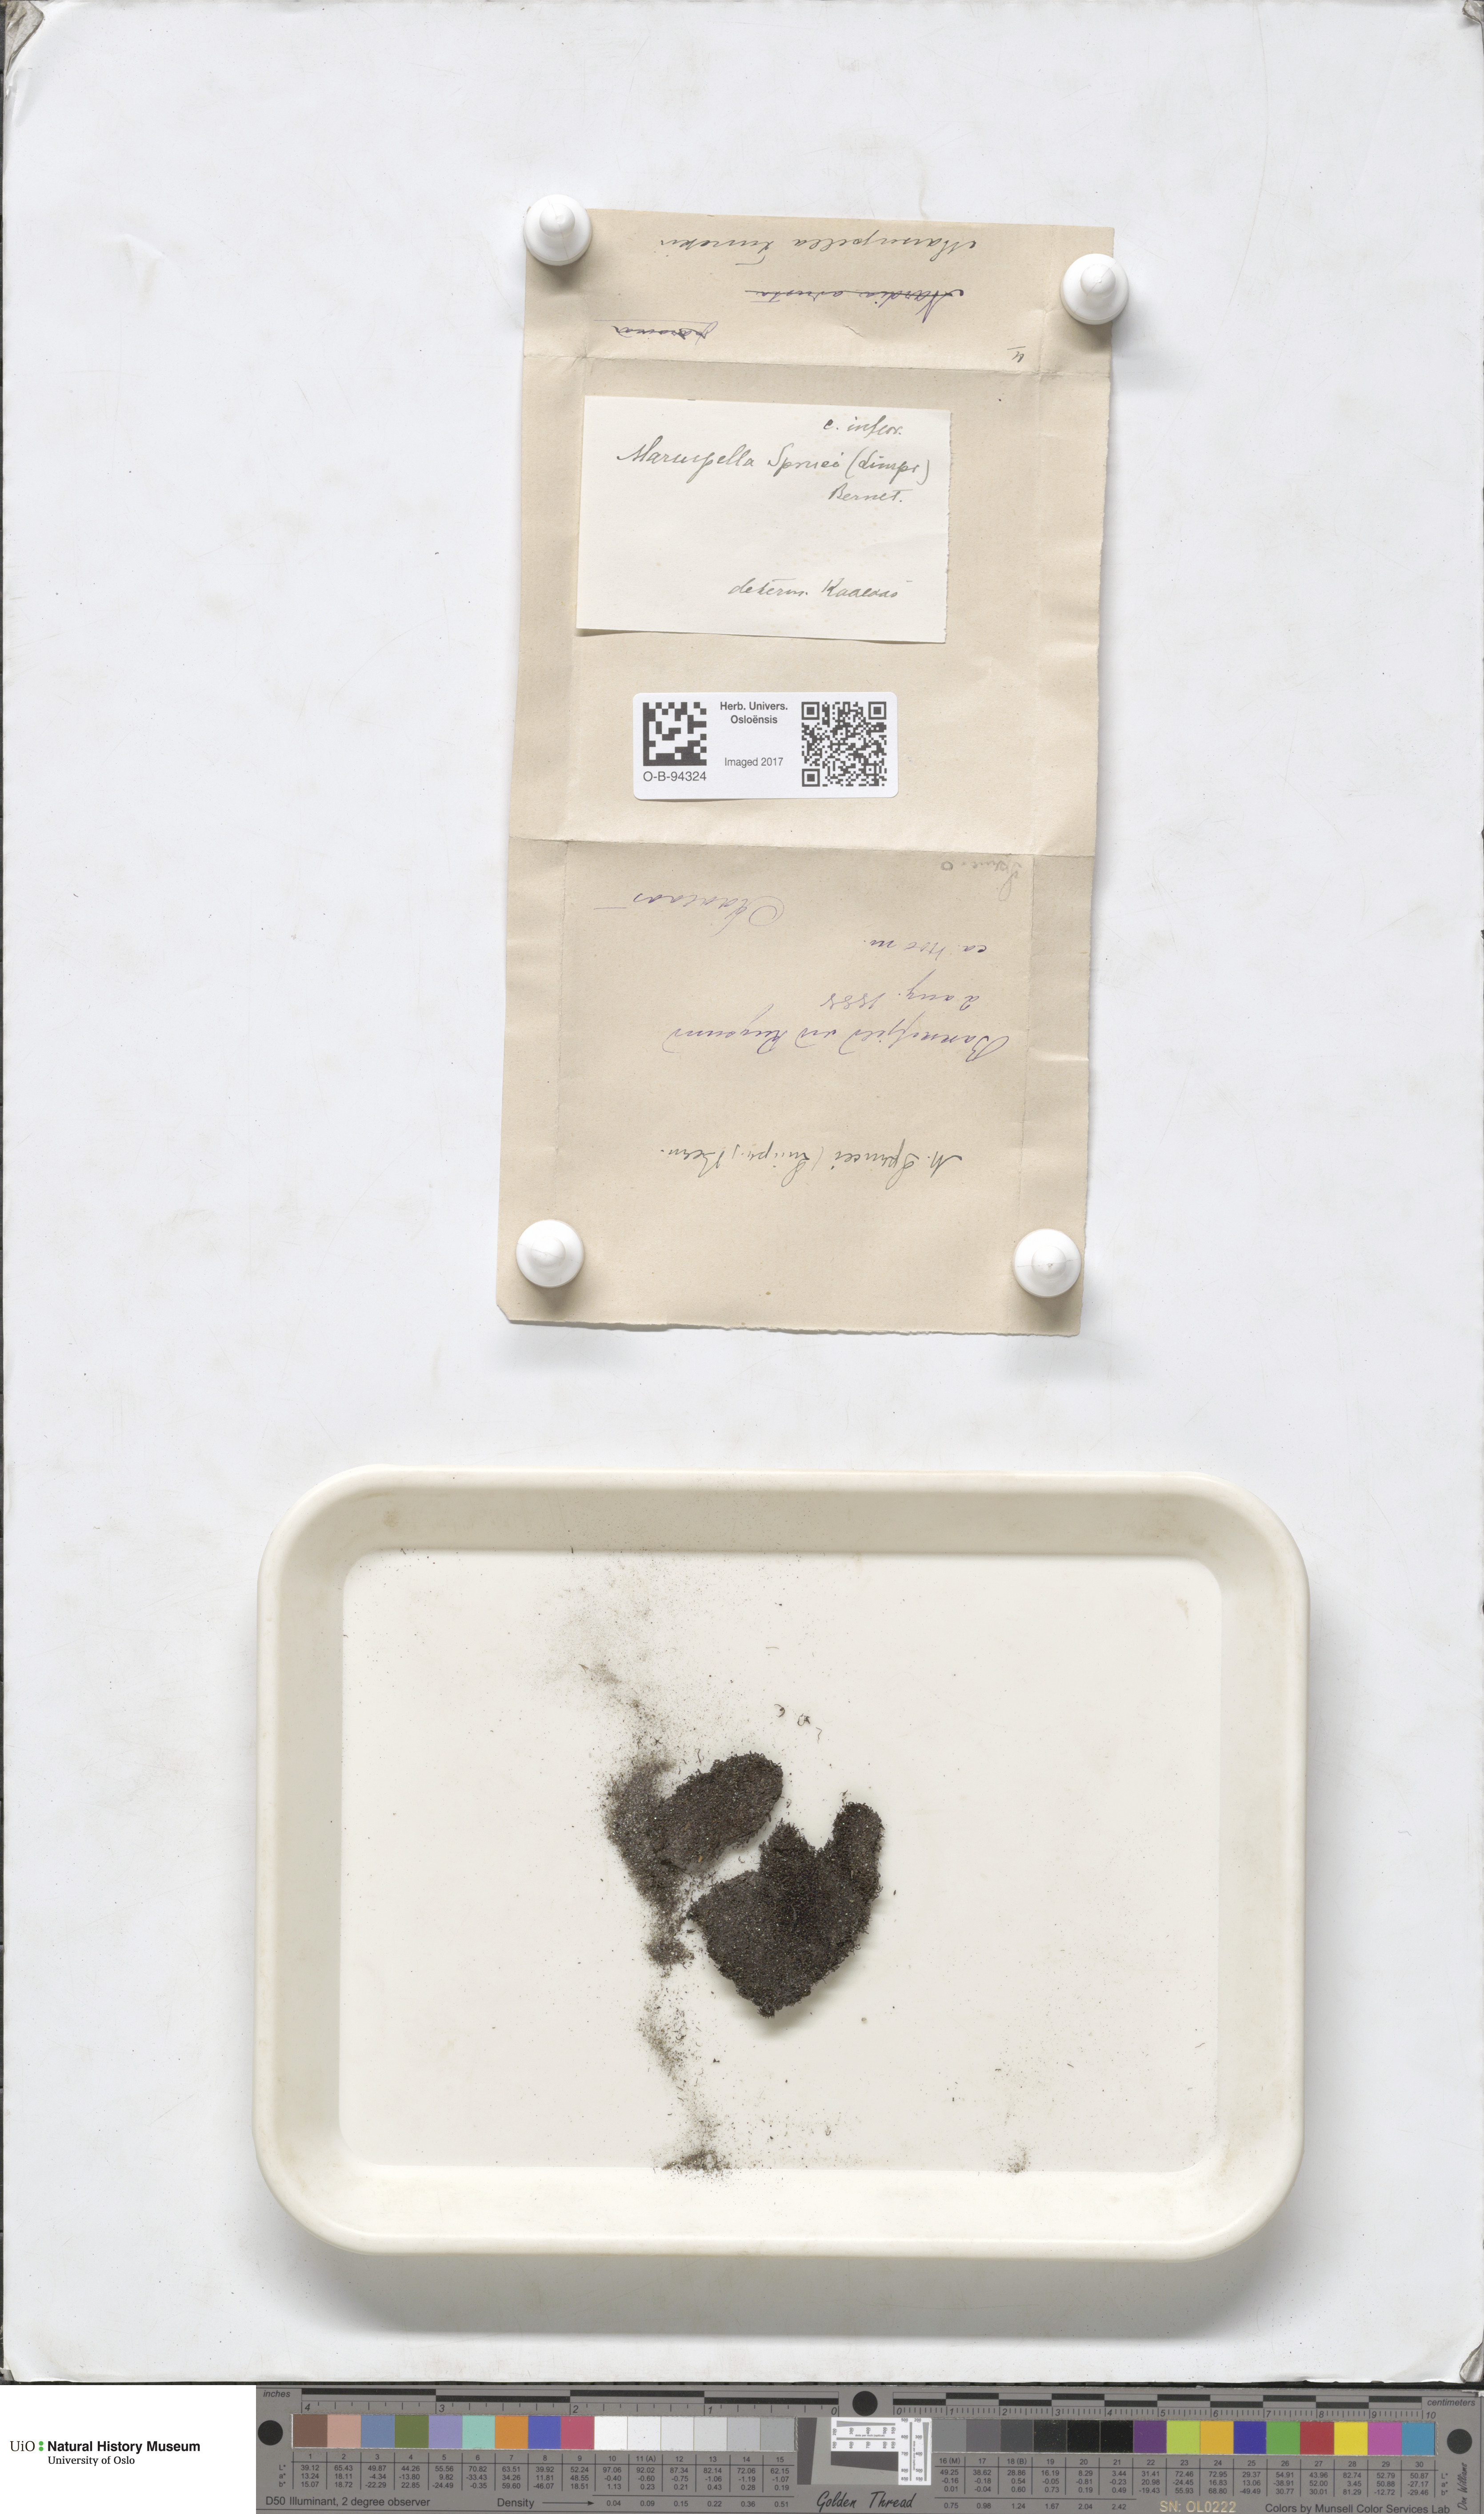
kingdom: Plantae
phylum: Marchantiophyta
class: Jungermanniopsida
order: Jungermanniales
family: Gymnomitriaceae
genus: Marsupella
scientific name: Marsupella sprucei
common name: Spruce s rustwort
